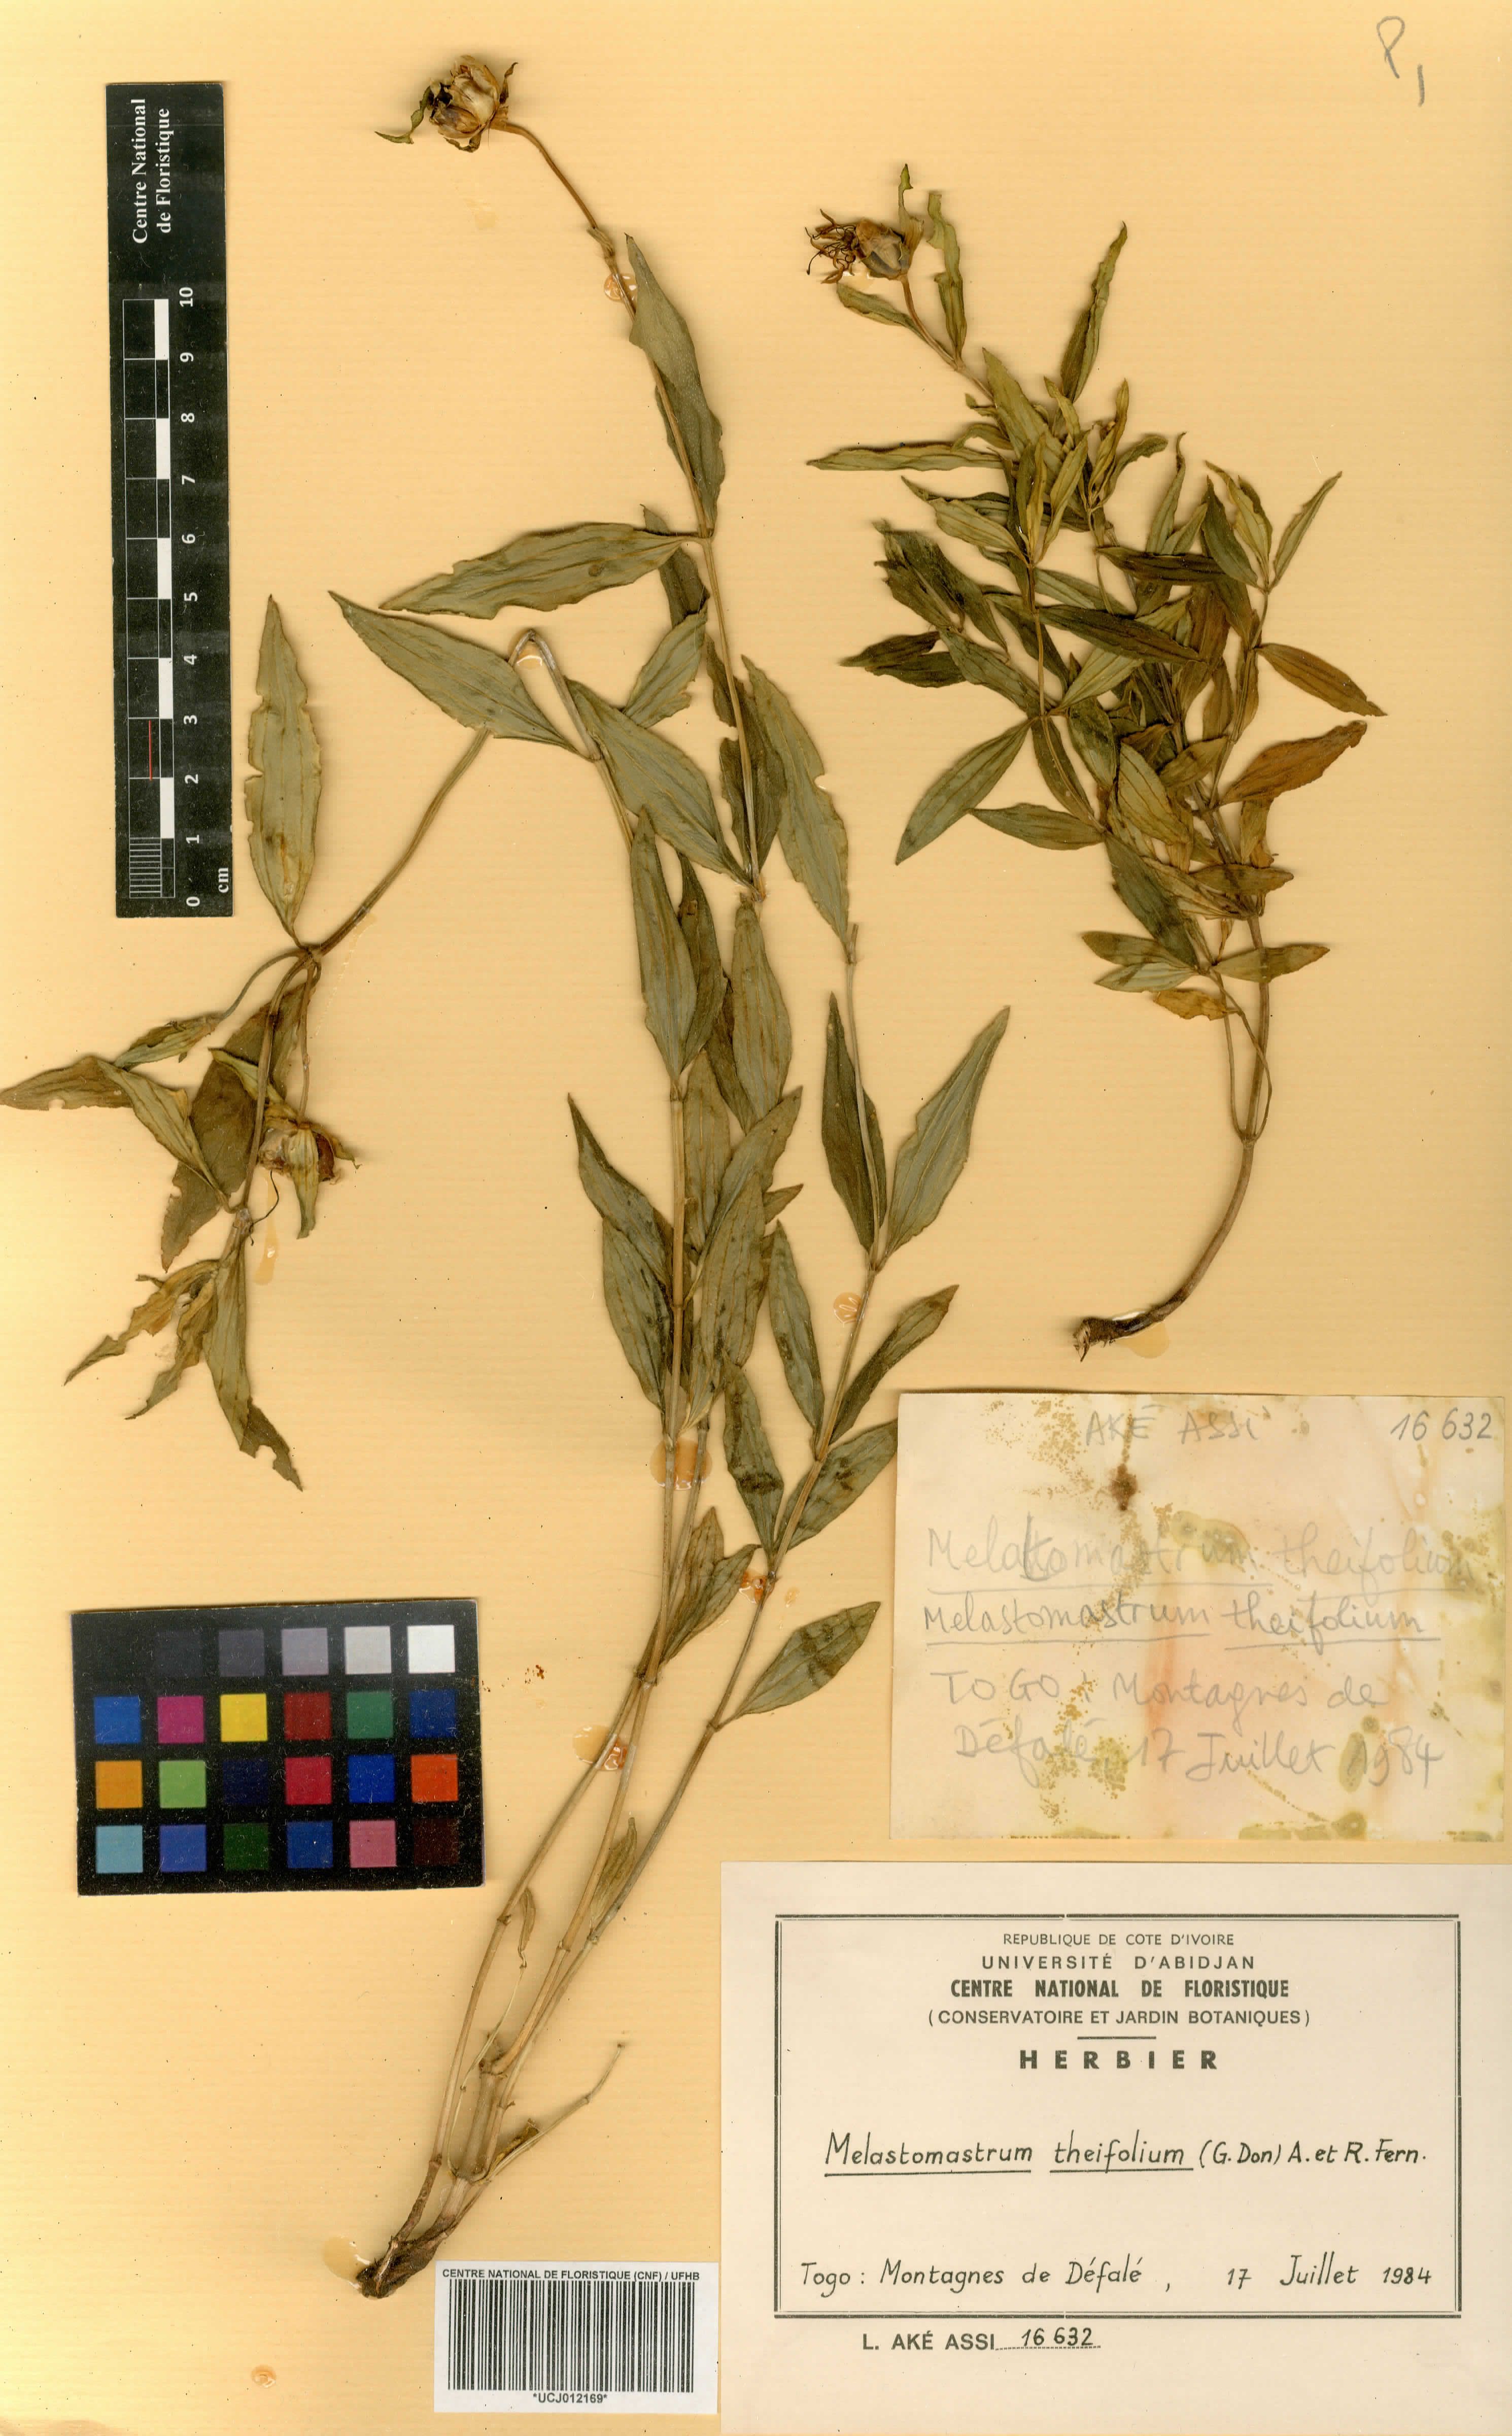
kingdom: Plantae
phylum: Tracheophyta
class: Magnoliopsida
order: Myrtales
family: Melastomataceae
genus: Melastomastrum
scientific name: Melastomastrum theifolium
